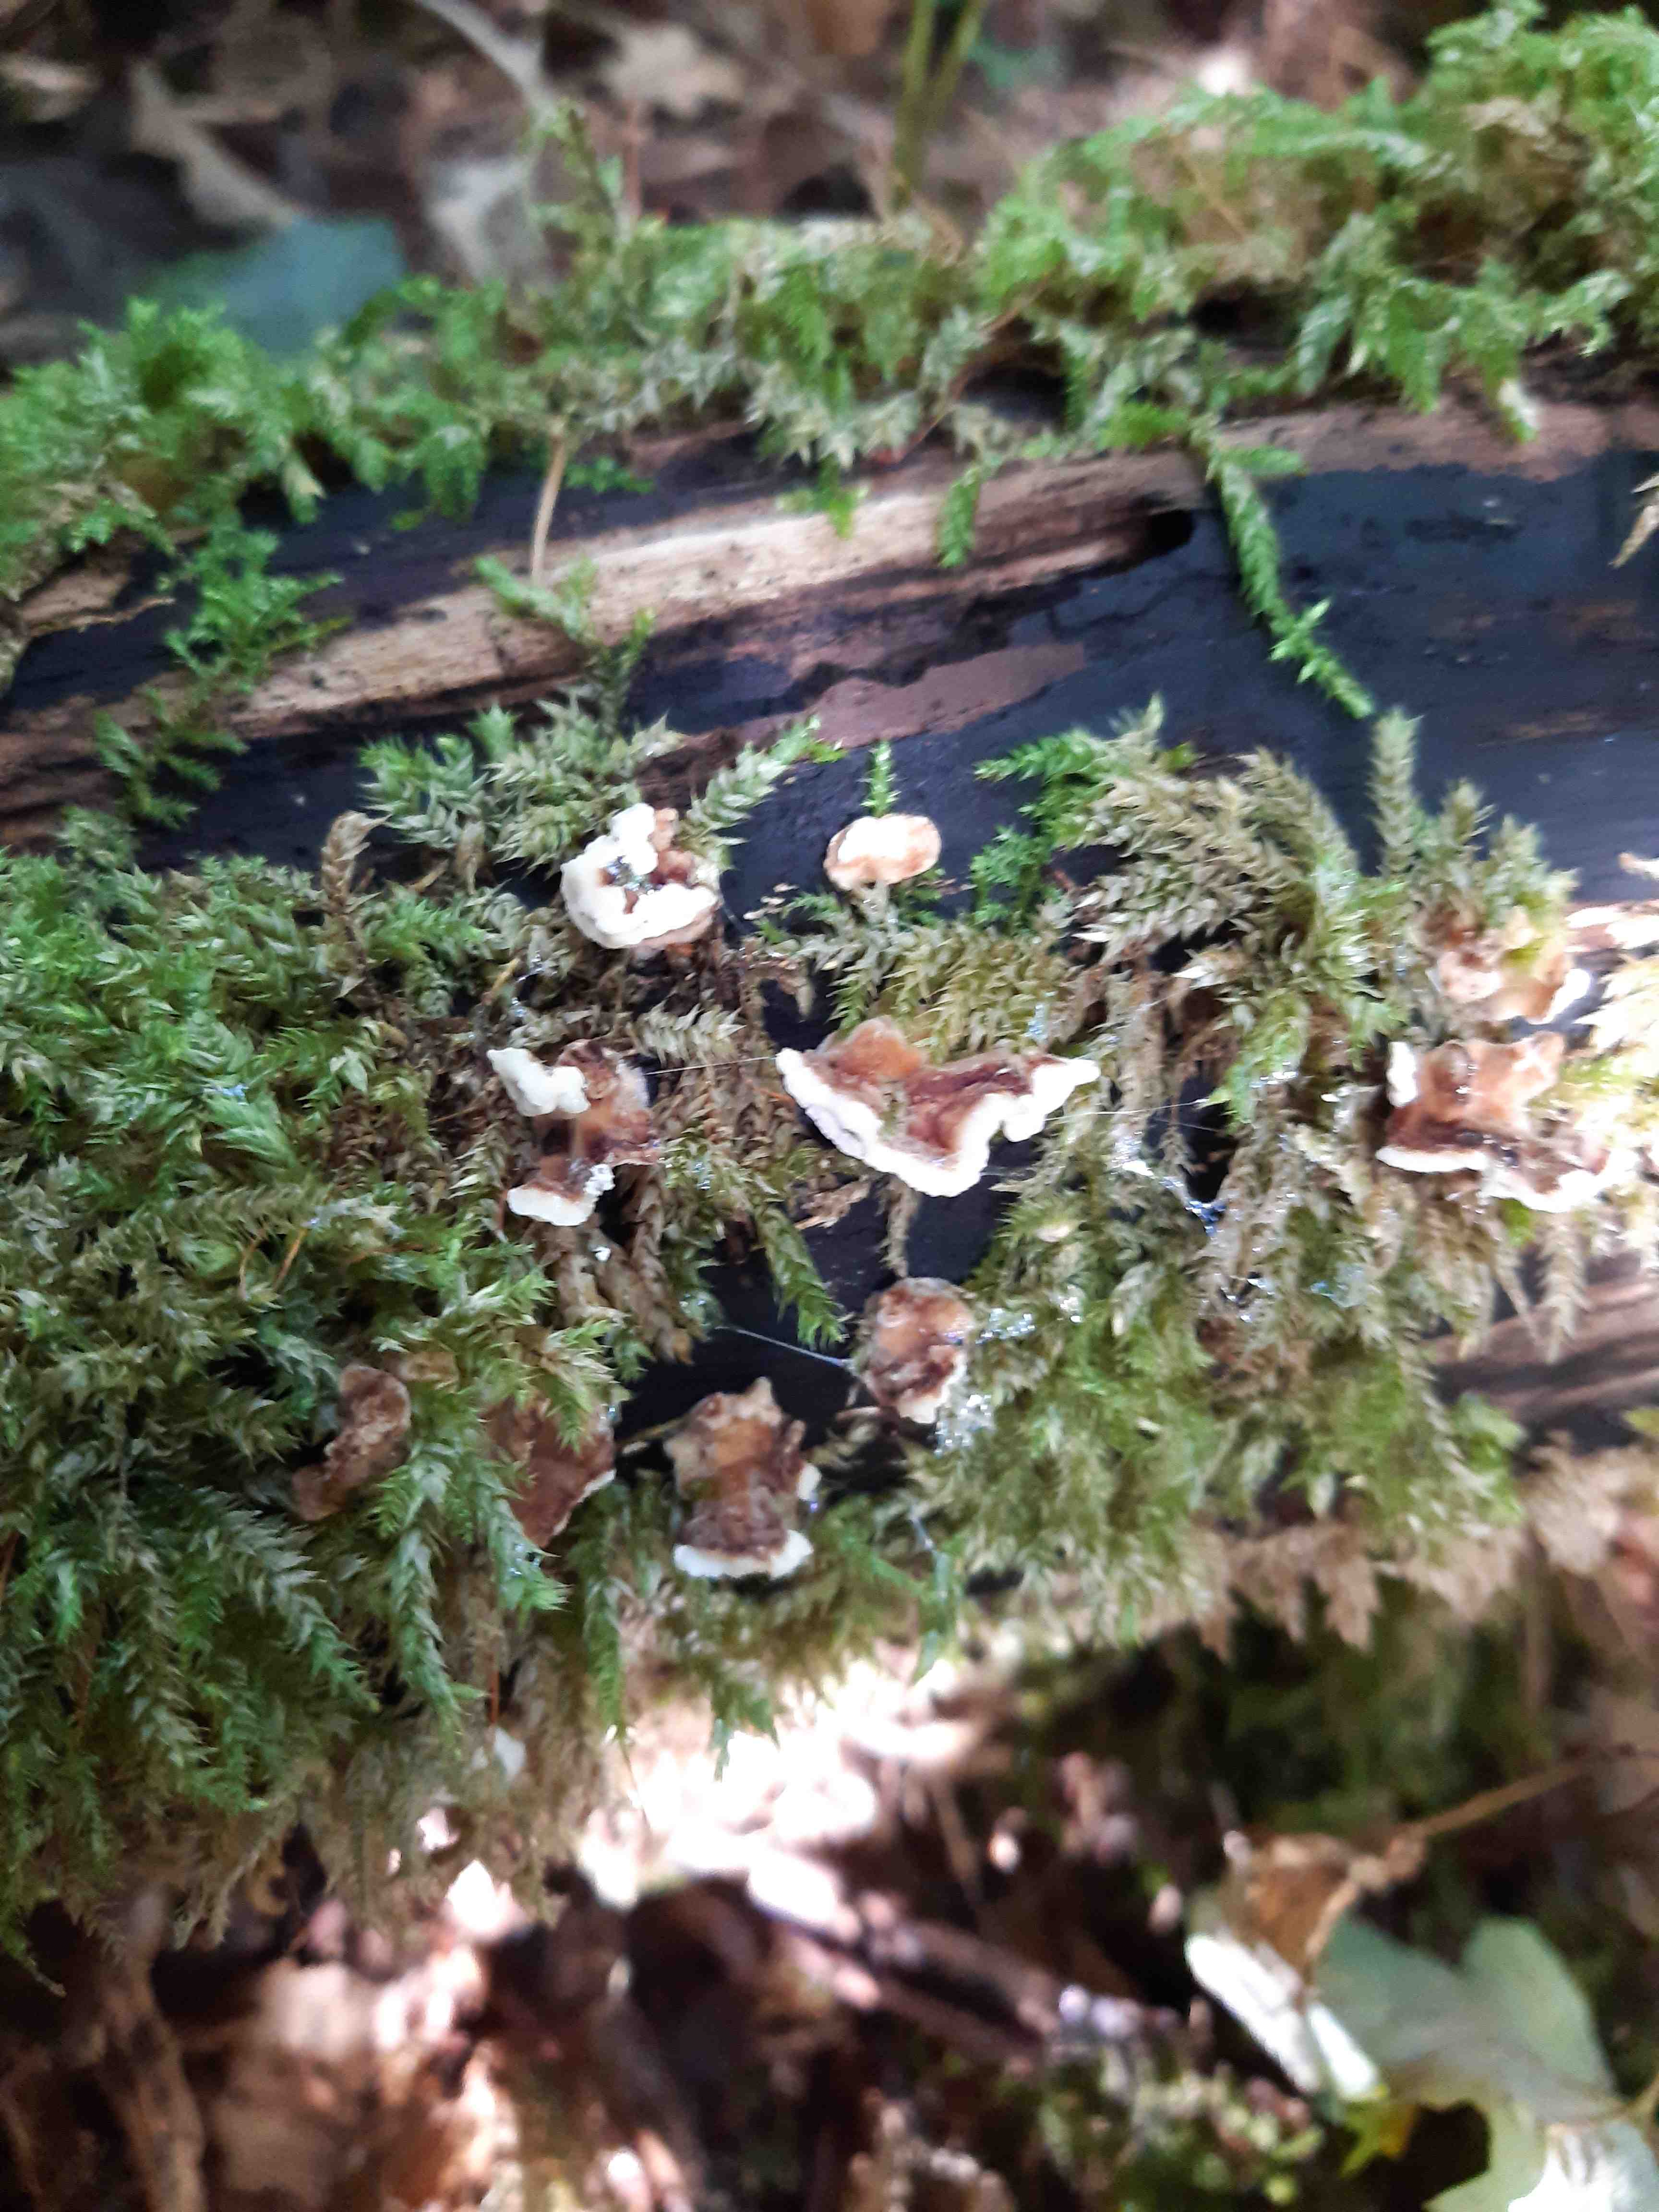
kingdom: Fungi
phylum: Basidiomycota
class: Agaricomycetes
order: Polyporales
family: Polyporaceae
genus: Trametes
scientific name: Trametes versicolor
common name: broget læderporesvamp
